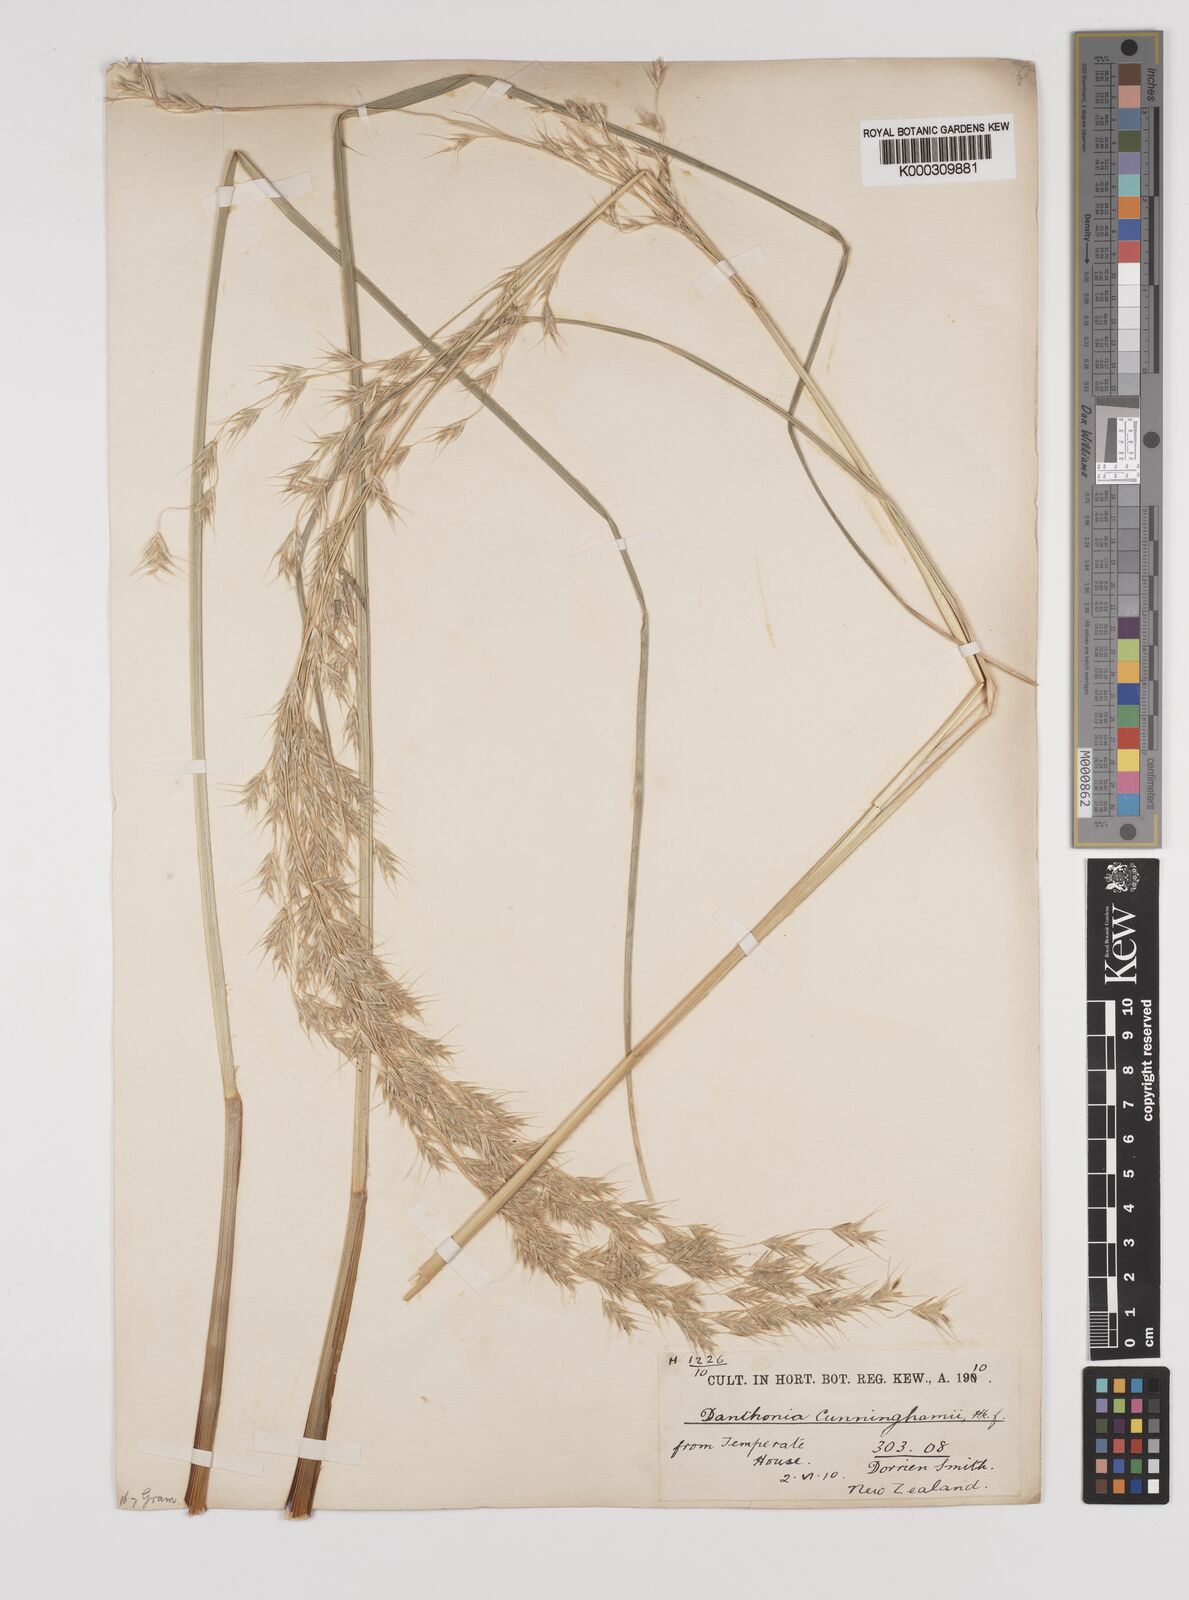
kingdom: Plantae
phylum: Tracheophyta
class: Liliopsida
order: Poales
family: Poaceae
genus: Chionochloa
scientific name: Chionochloa conspicua
